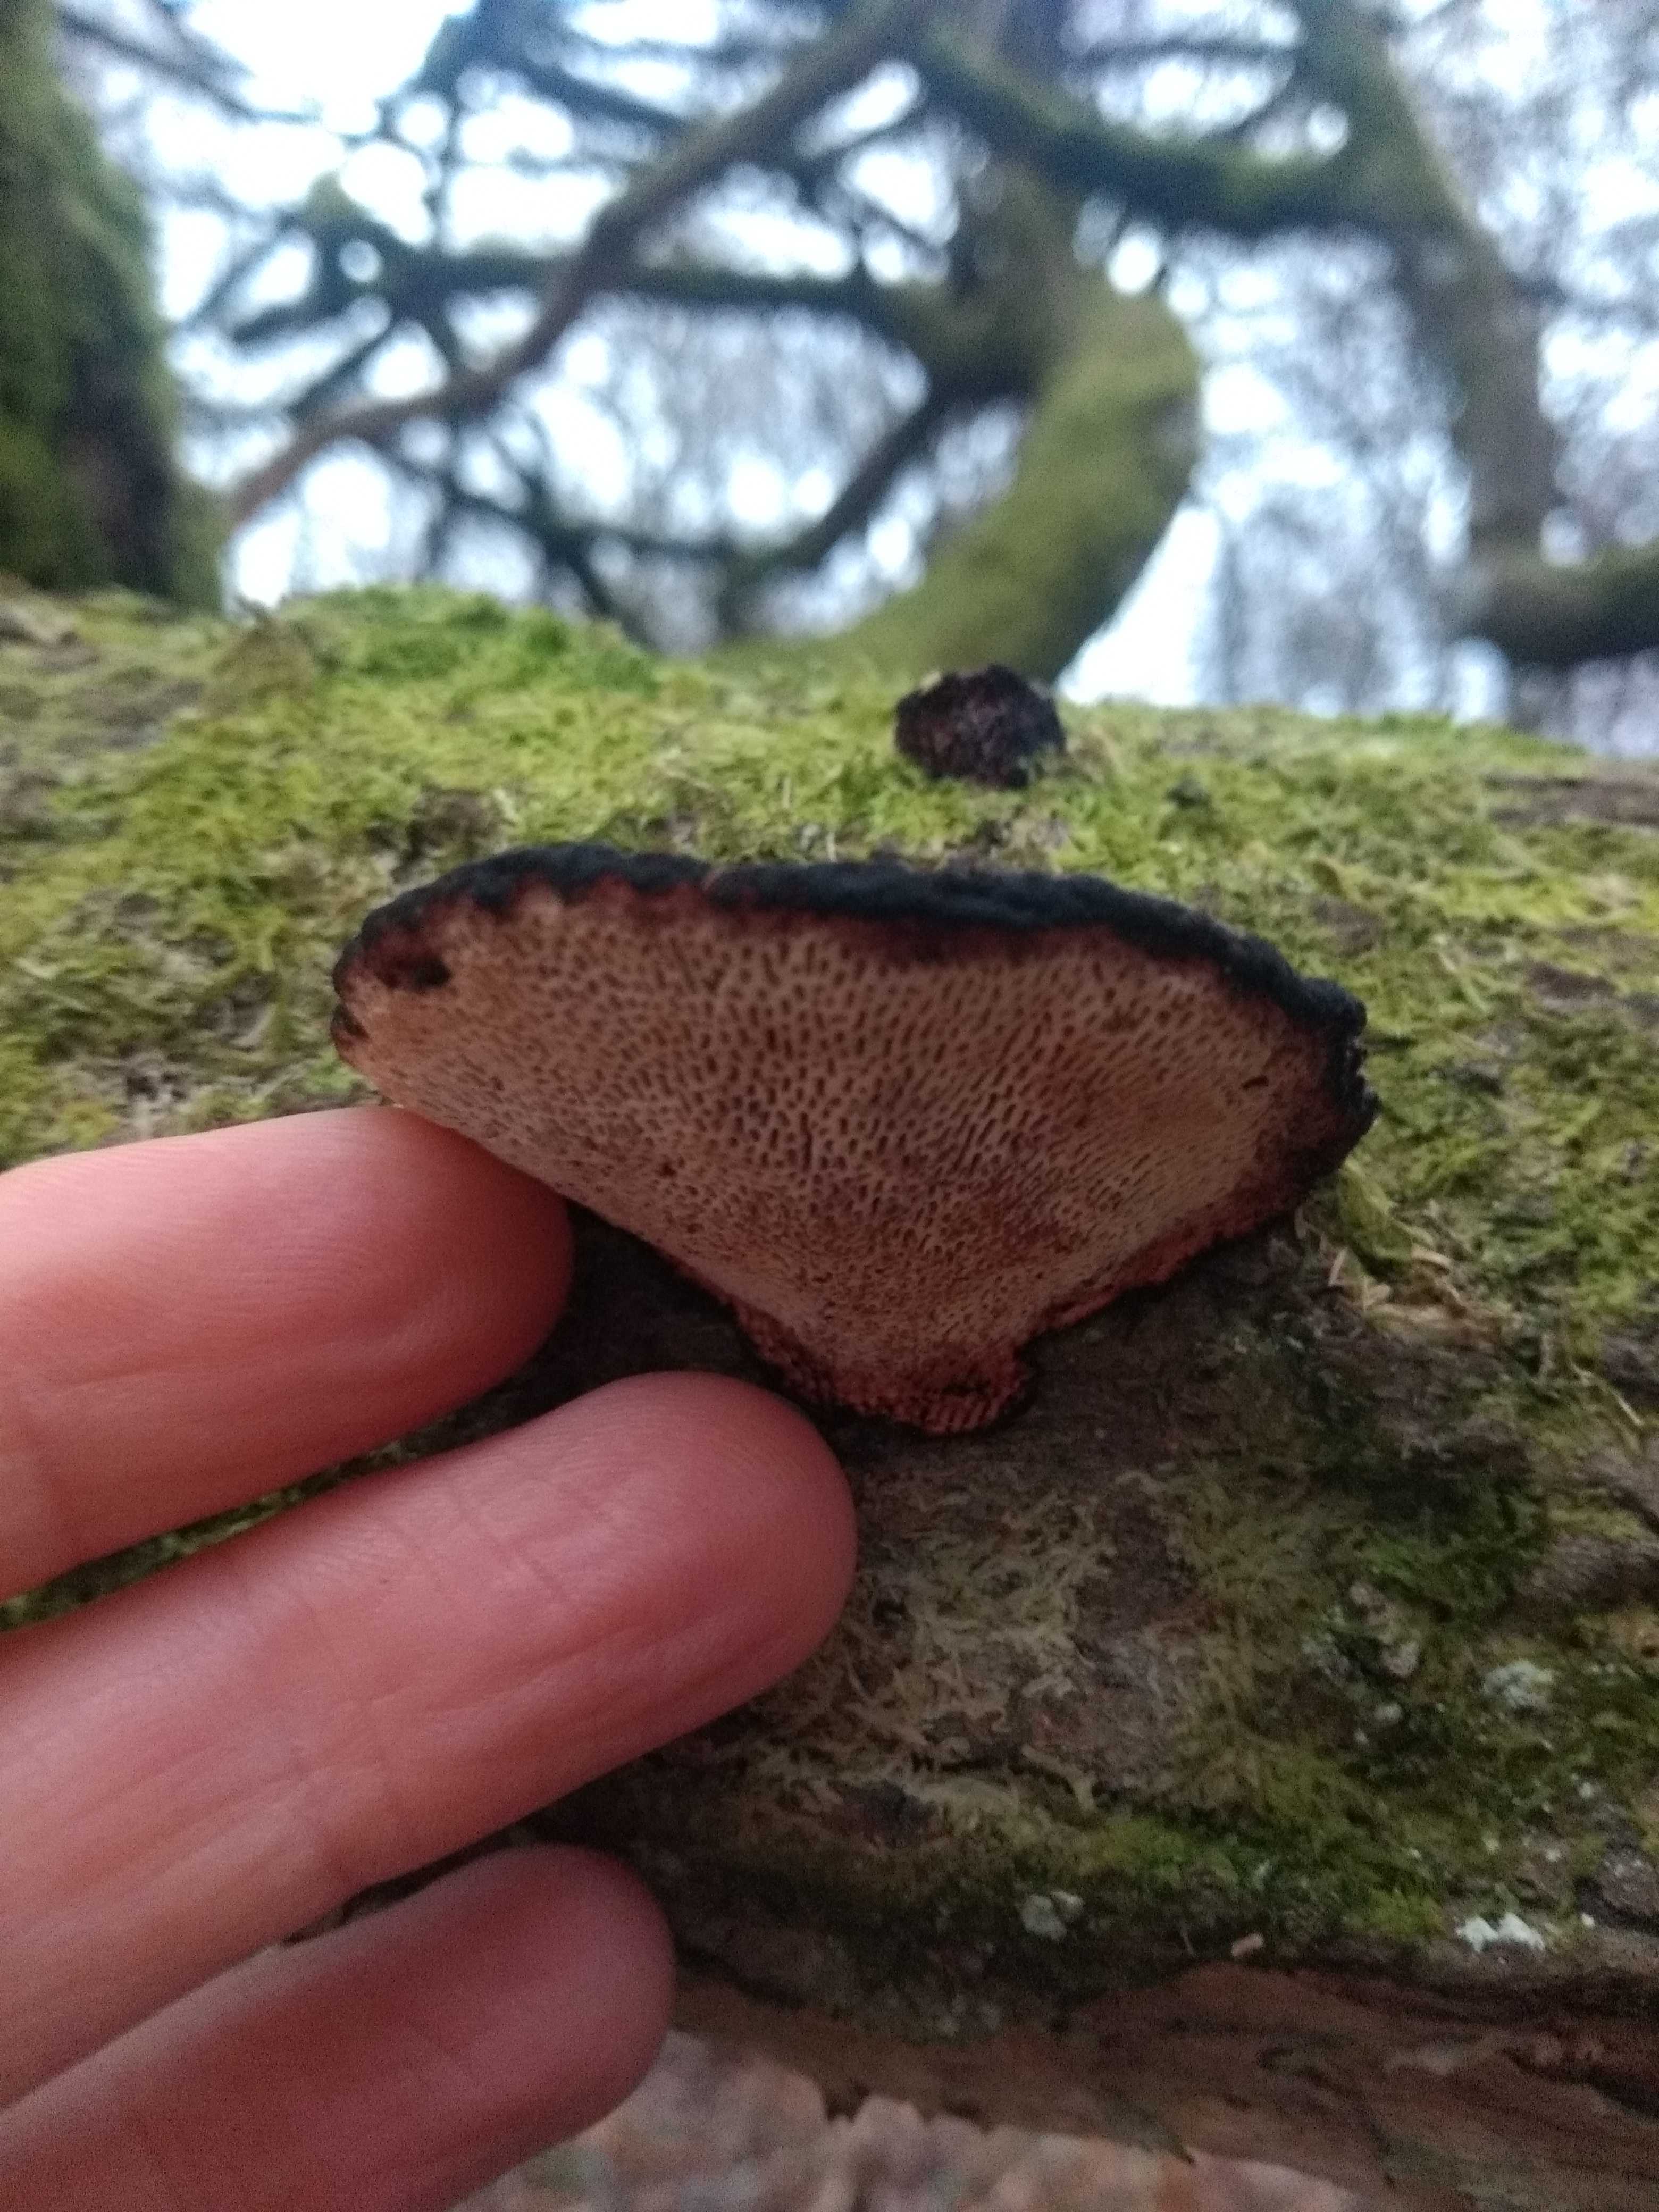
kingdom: Fungi
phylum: Basidiomycota
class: Agaricomycetes
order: Polyporales
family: Polyporaceae
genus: Daedaleopsis
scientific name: Daedaleopsis confragosa
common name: rødmende læderporesvamp
